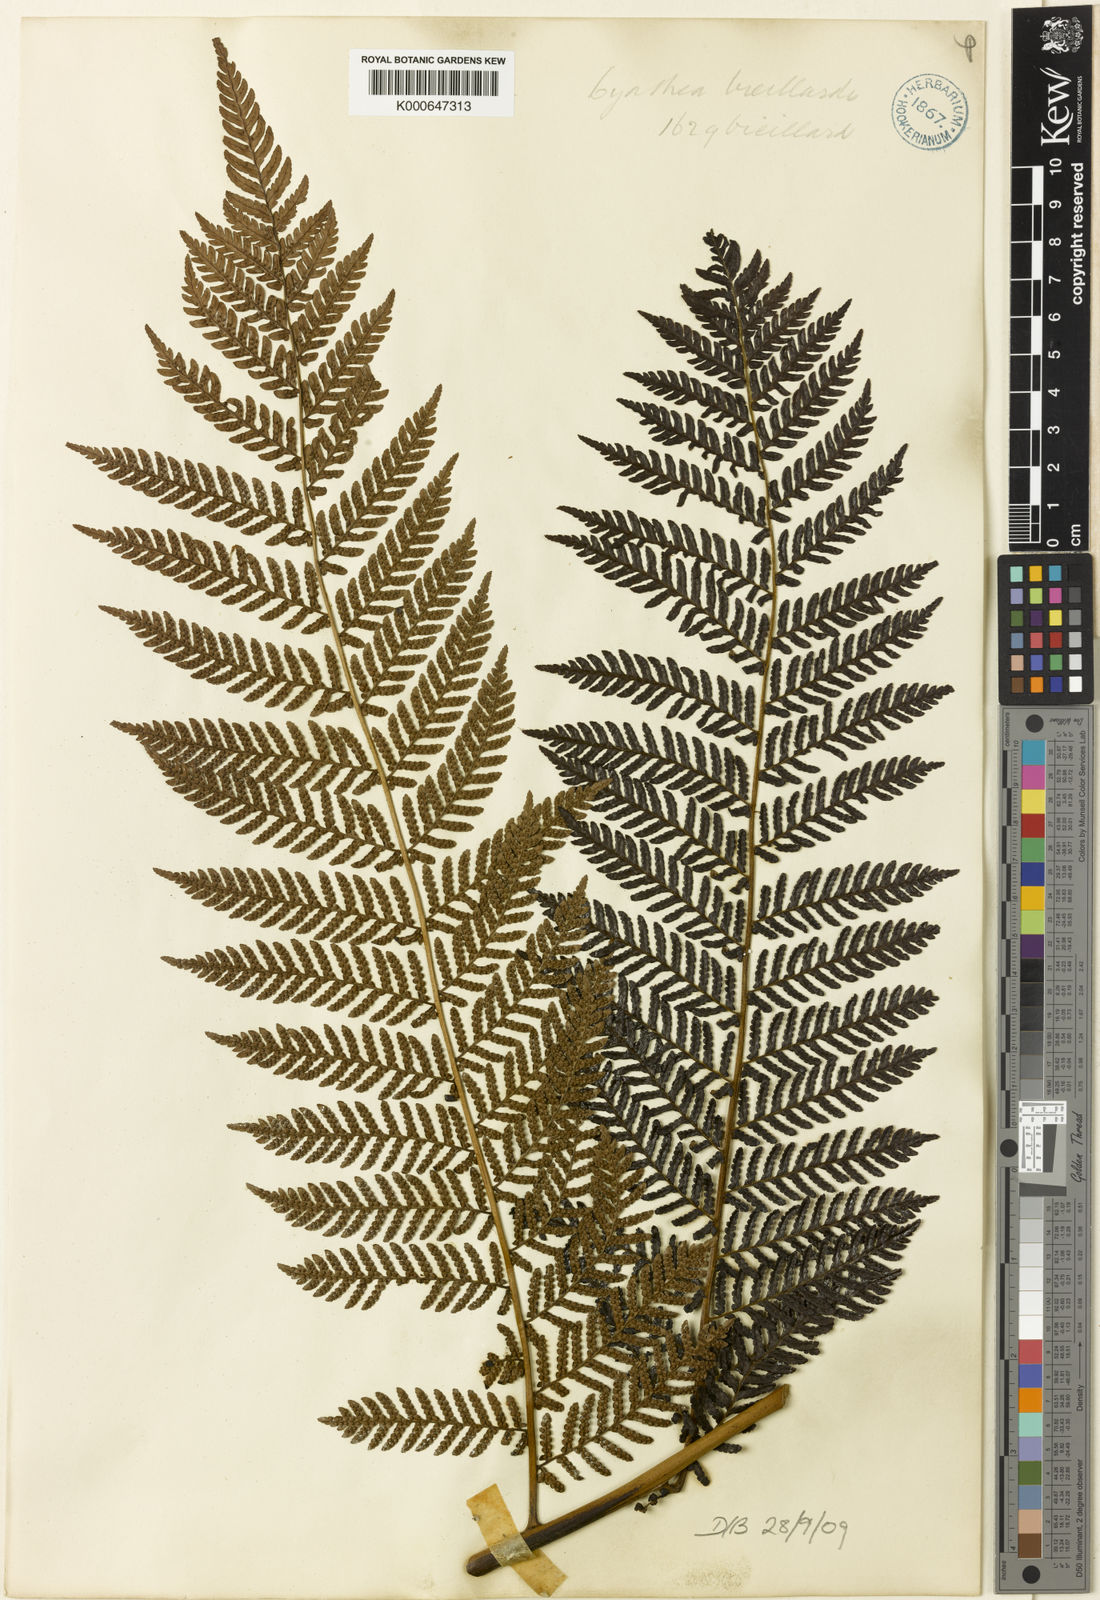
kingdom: Plantae
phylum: Tracheophyta
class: Polypodiopsida
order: Cyatheales
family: Cyatheaceae
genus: Alsophila
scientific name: Alsophila vieillardii
